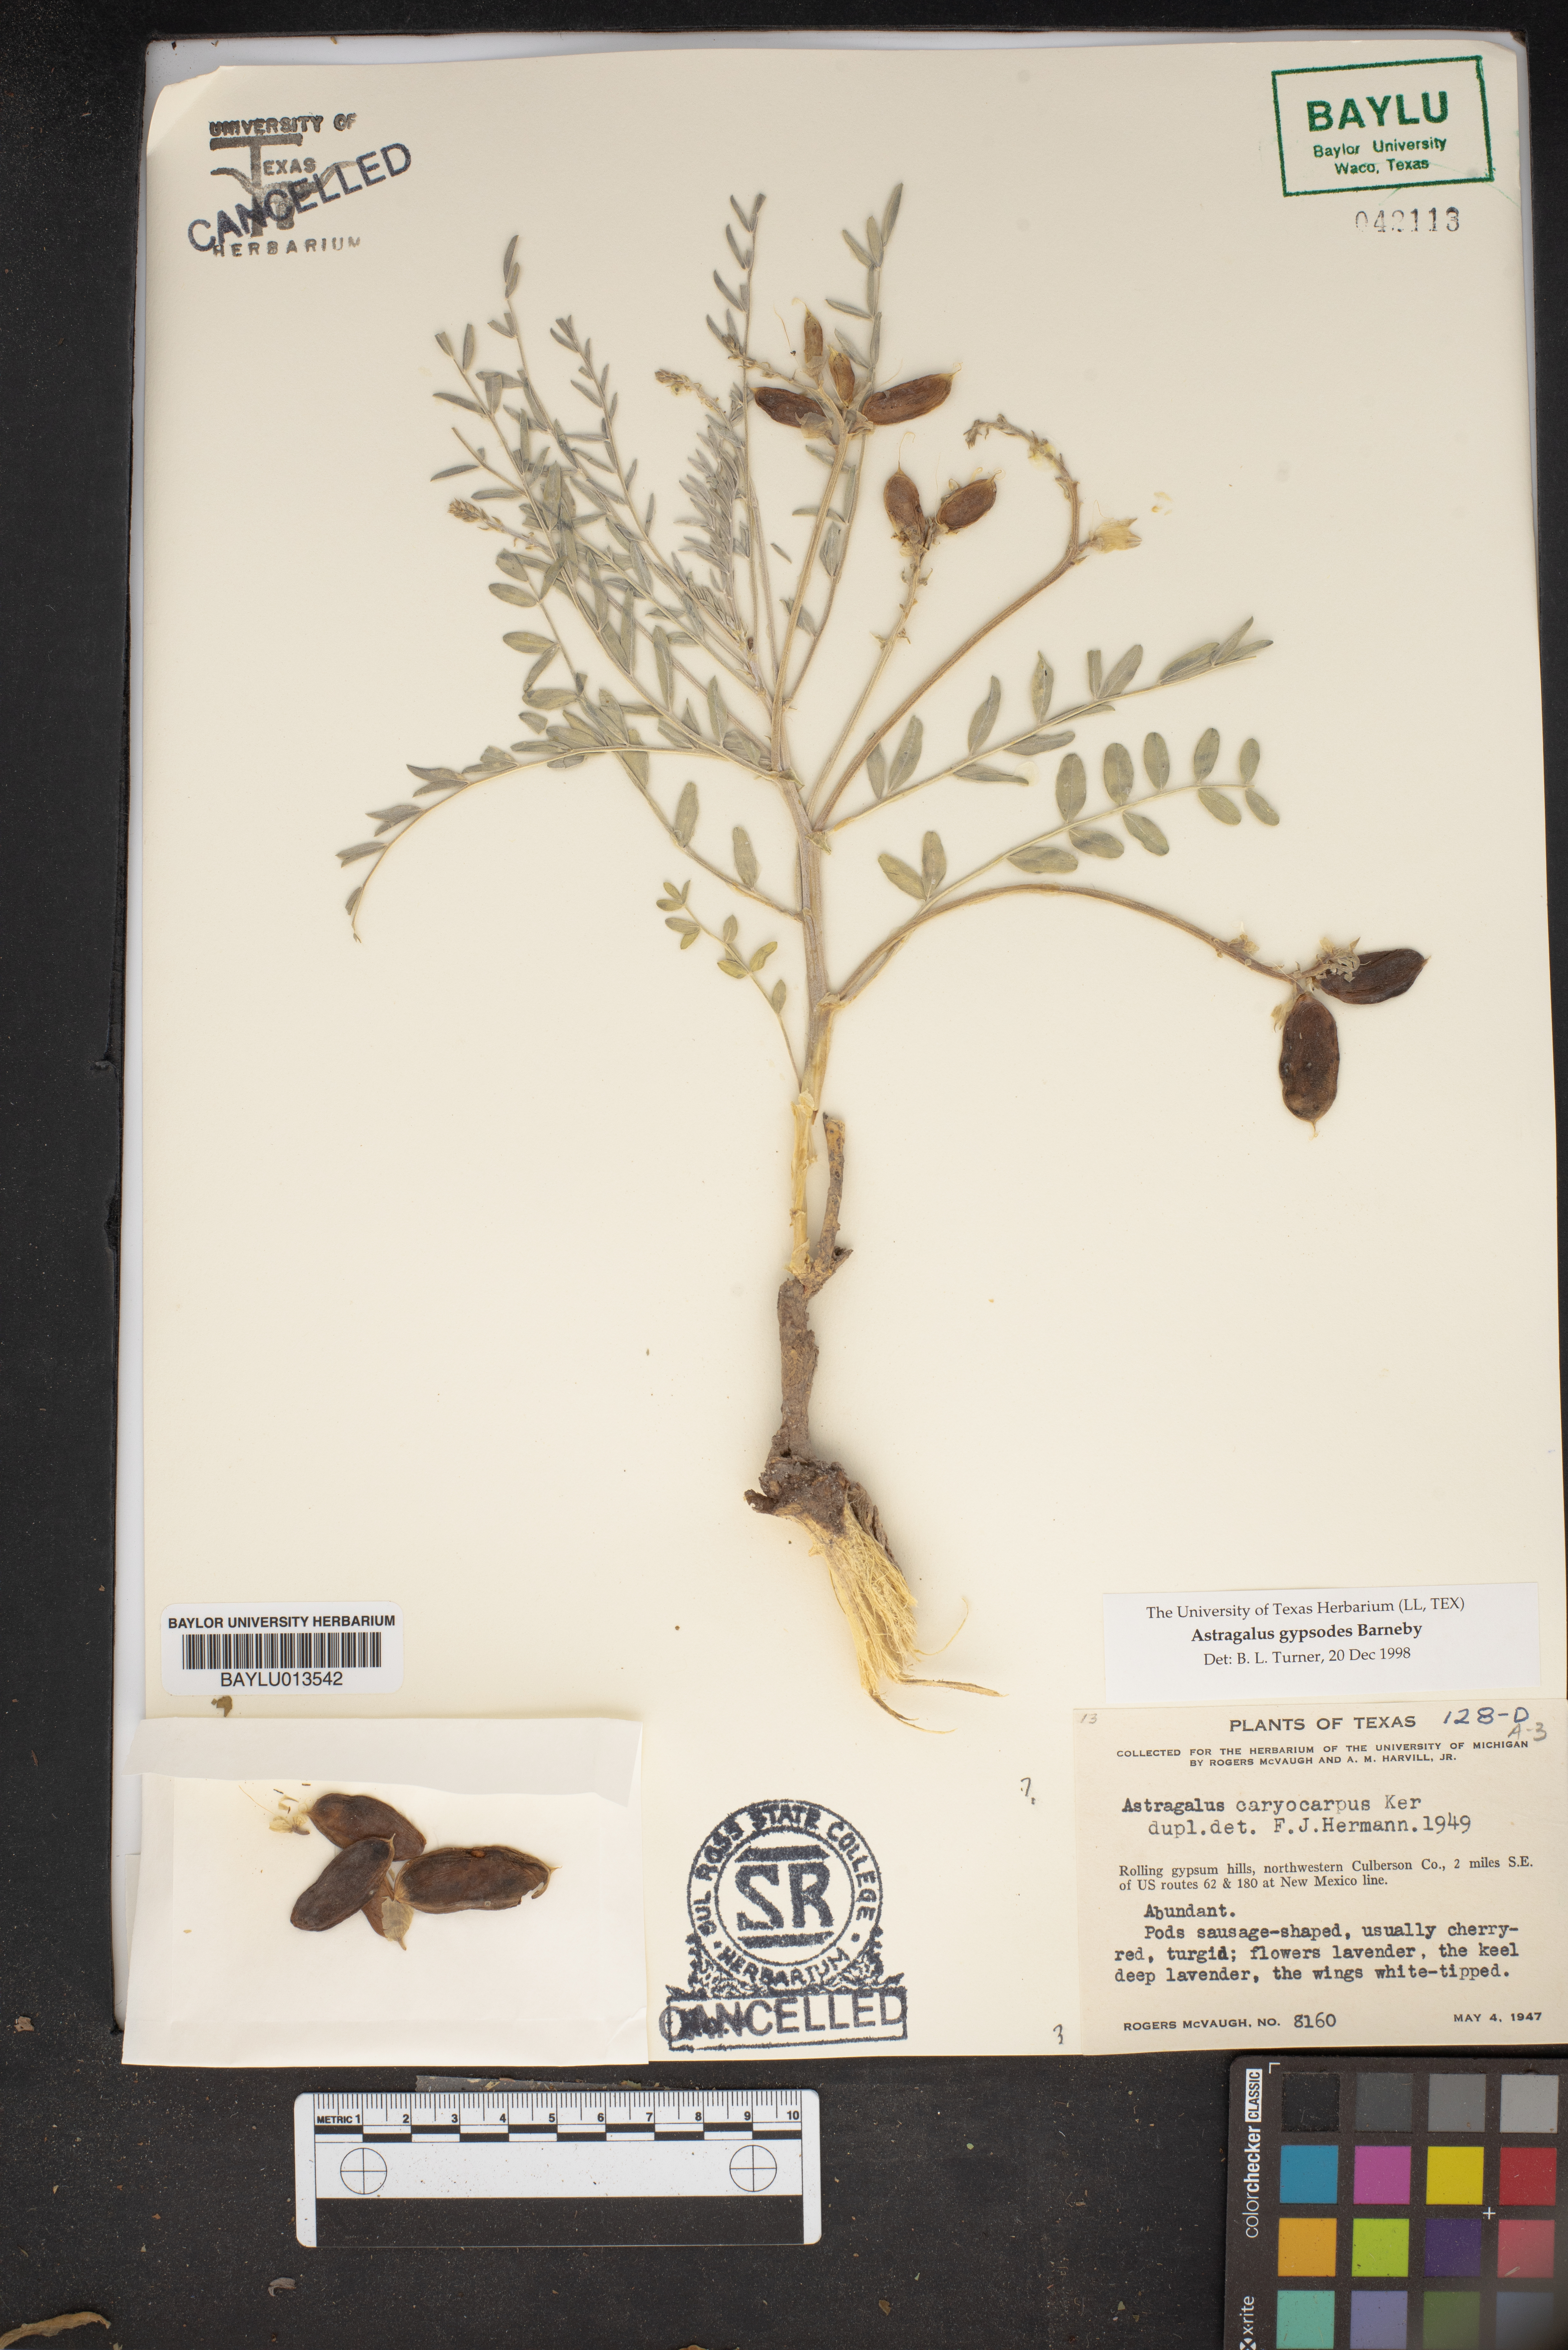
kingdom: Plantae
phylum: Tracheophyta
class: Magnoliopsida
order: Fabales
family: Fabaceae
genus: Astragalus
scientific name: Astragalus crassicarpus
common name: Ground-plum milk-vetch
